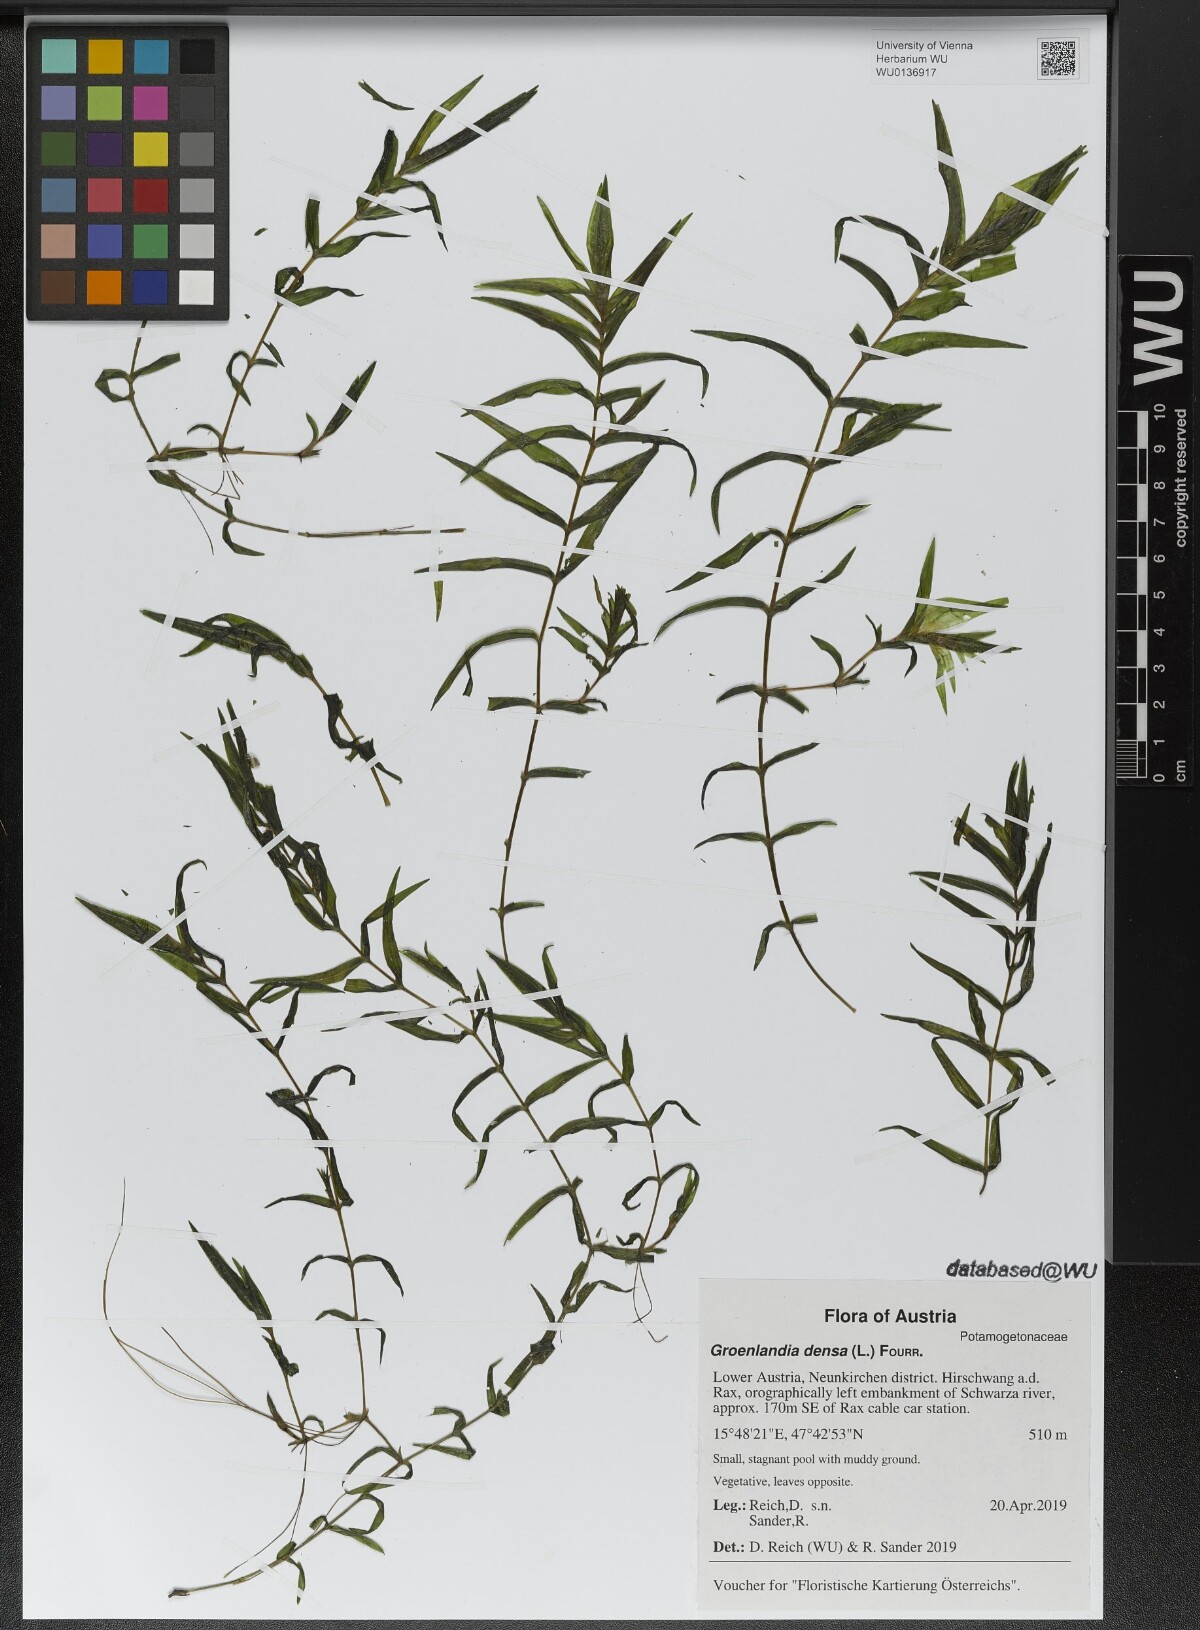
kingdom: Plantae
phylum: Tracheophyta
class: Liliopsida
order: Alismatales
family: Potamogetonaceae
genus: Groenlandia
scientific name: Groenlandia densa
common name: Opposite-leaved pondweed
